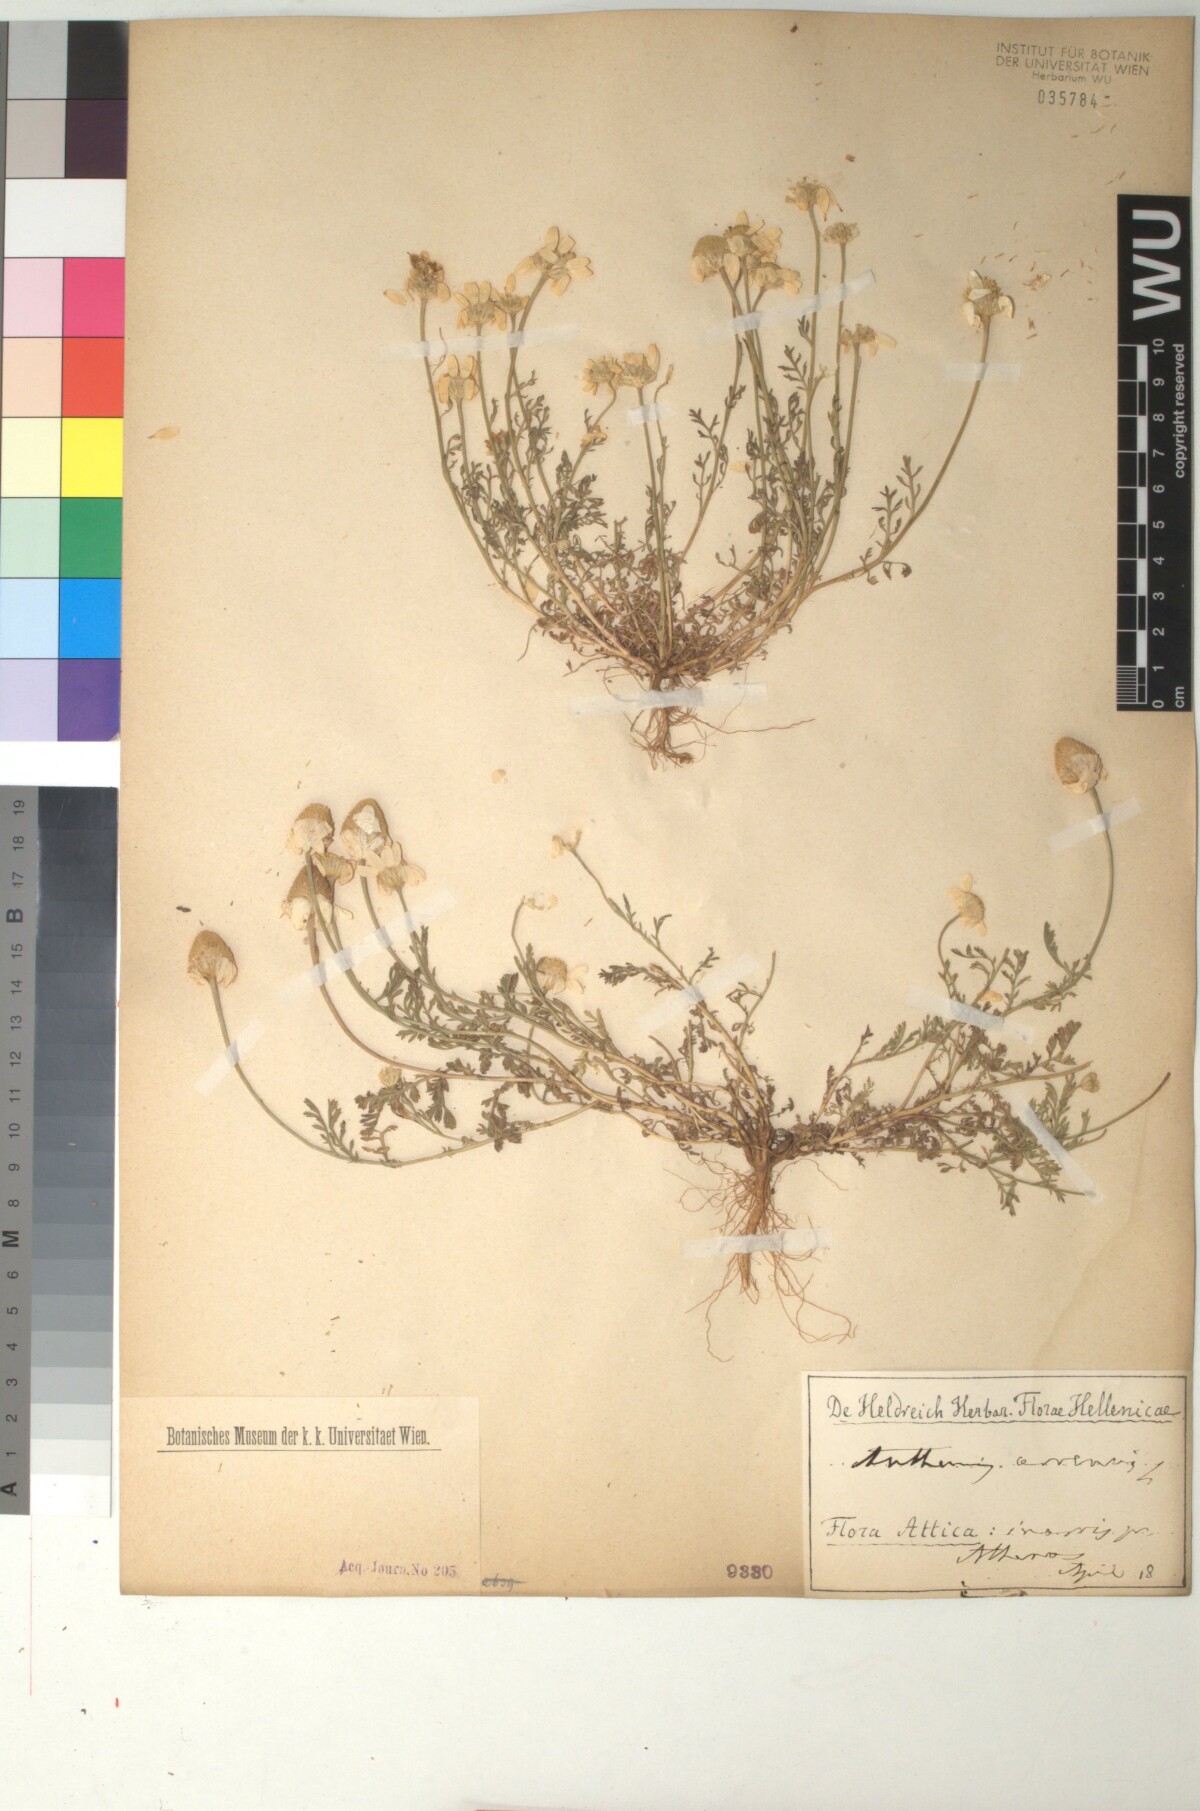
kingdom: Plantae
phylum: Tracheophyta
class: Magnoliopsida
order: Asterales
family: Asteraceae
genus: Anthemis
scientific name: Anthemis arvensis
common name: Corn chamomile
